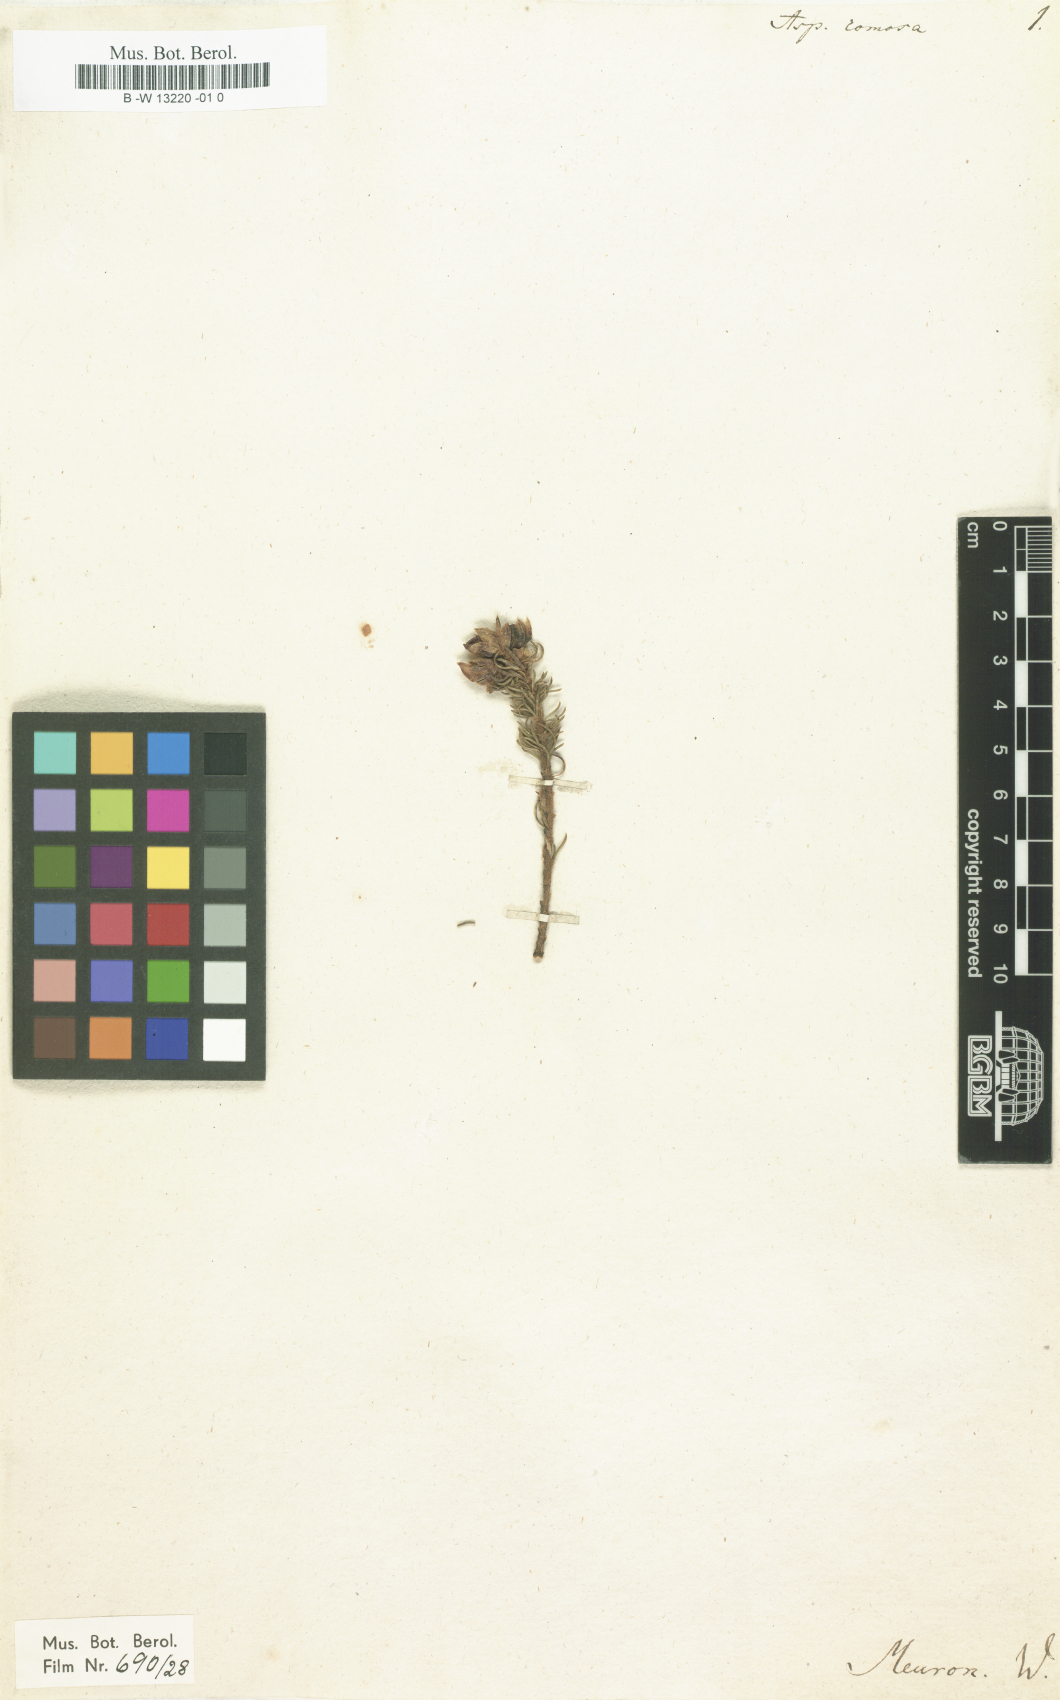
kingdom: Plantae
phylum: Tracheophyta
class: Magnoliopsida
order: Fabales
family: Fabaceae
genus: Aspalathus
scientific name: Aspalathus
